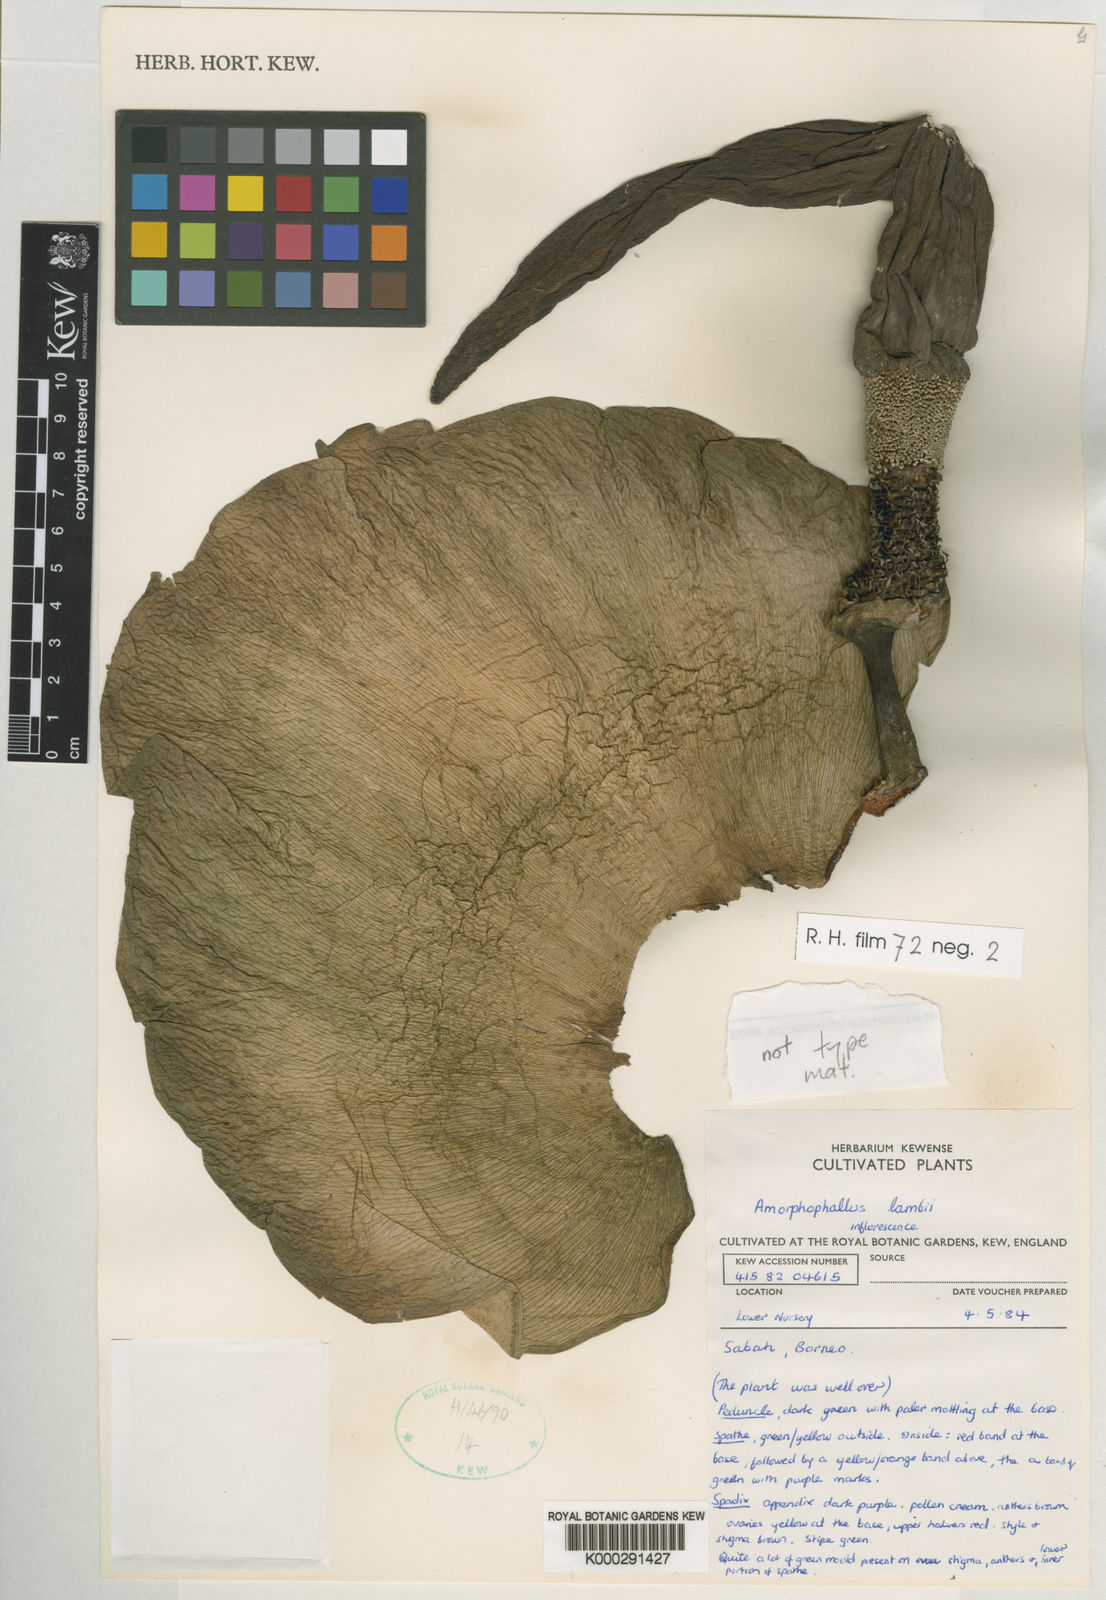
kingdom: Plantae
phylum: Tracheophyta
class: Liliopsida
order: Alismatales
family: Araceae
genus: Amorphophallus
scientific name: Amorphophallus lambii
